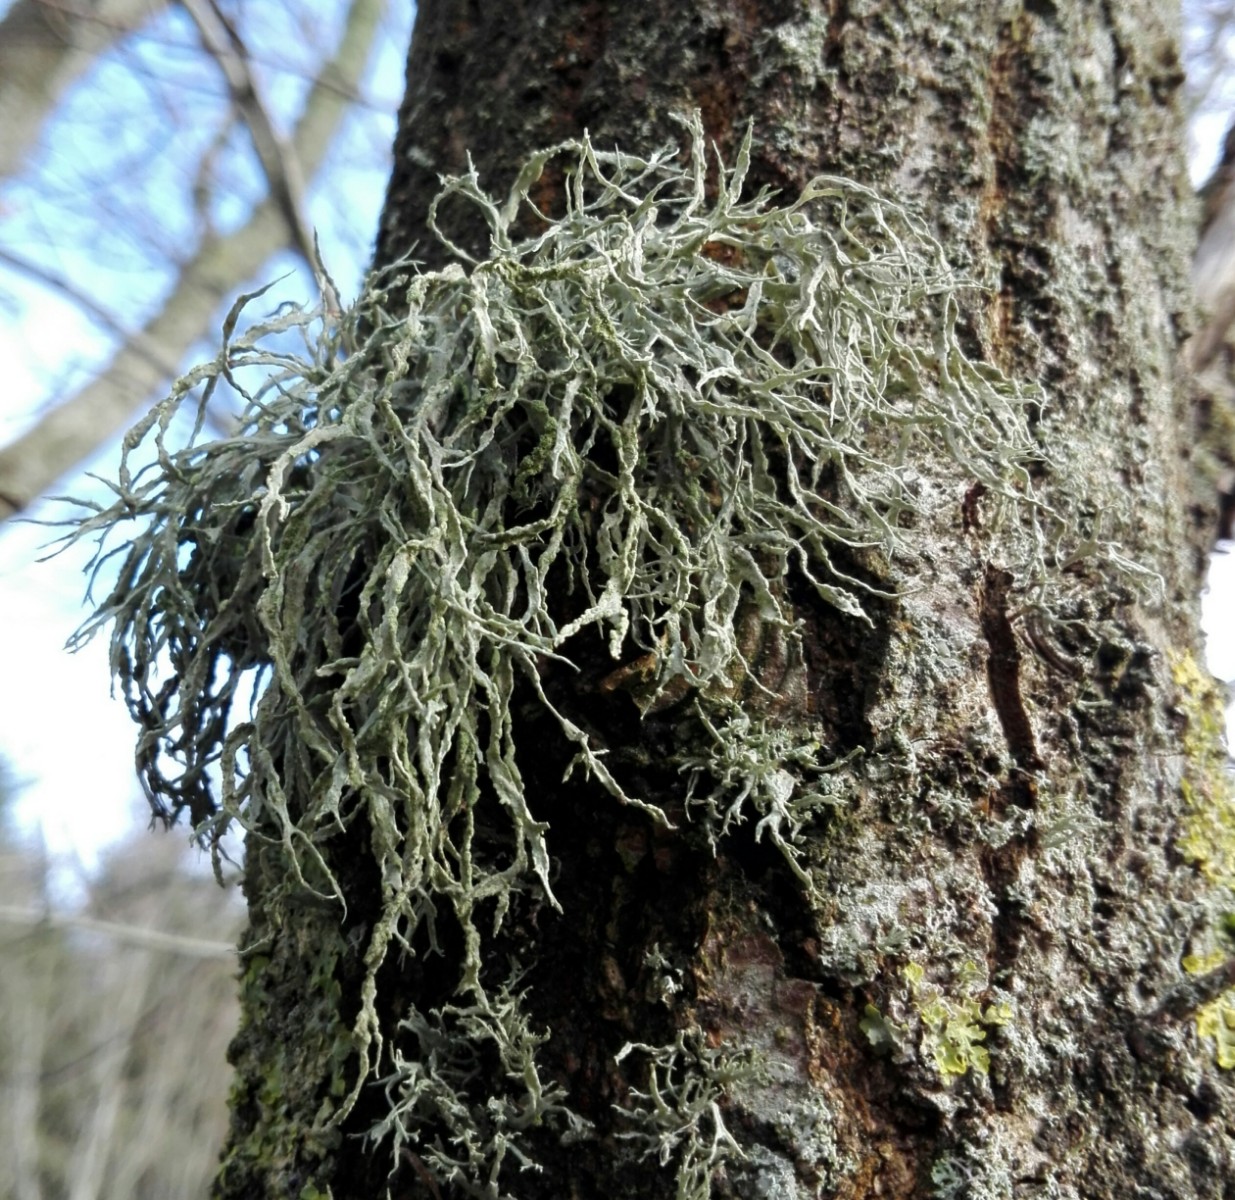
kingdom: Fungi
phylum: Ascomycota
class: Lecanoromycetes
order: Lecanorales
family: Ramalinaceae
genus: Ramalina
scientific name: Ramalina farinacea
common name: melet grenlav
